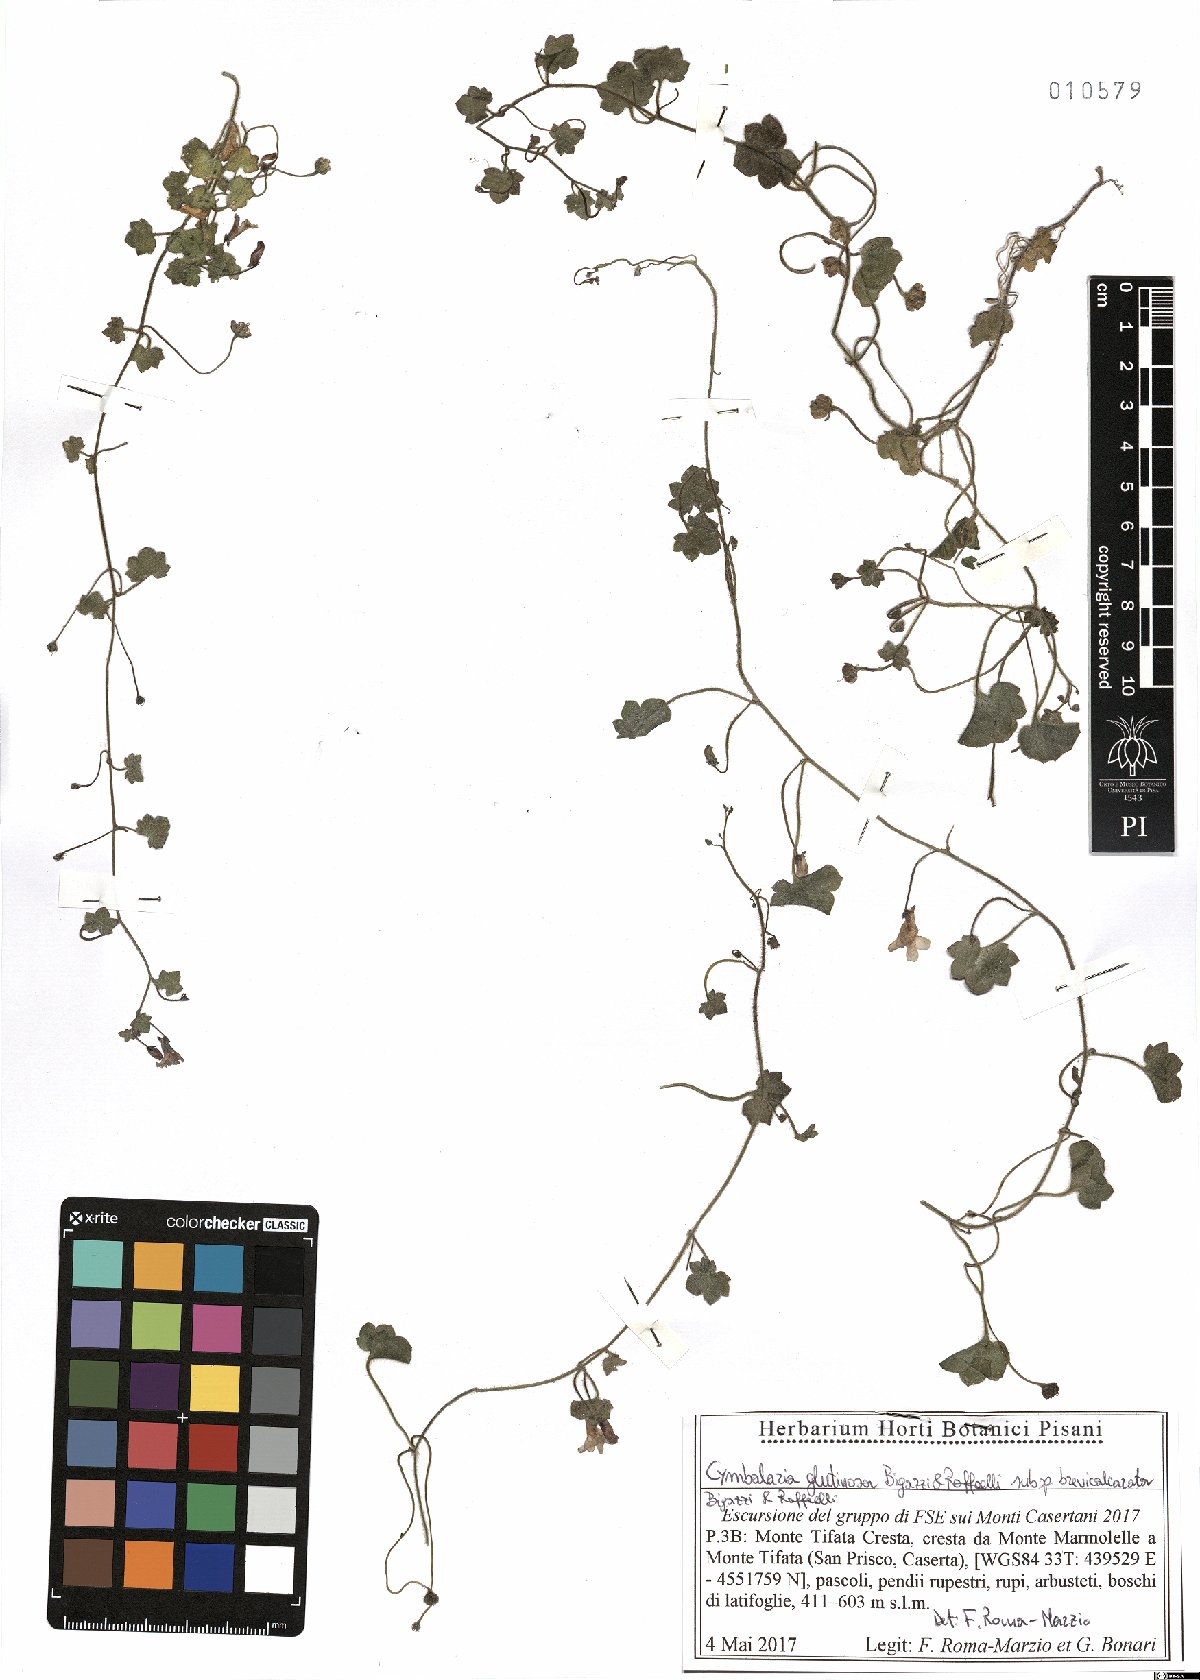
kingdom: Plantae
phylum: Tracheophyta
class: Magnoliopsida
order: Lamiales
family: Plantaginaceae
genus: Cymbalaria
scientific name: Cymbalaria glutinosa
